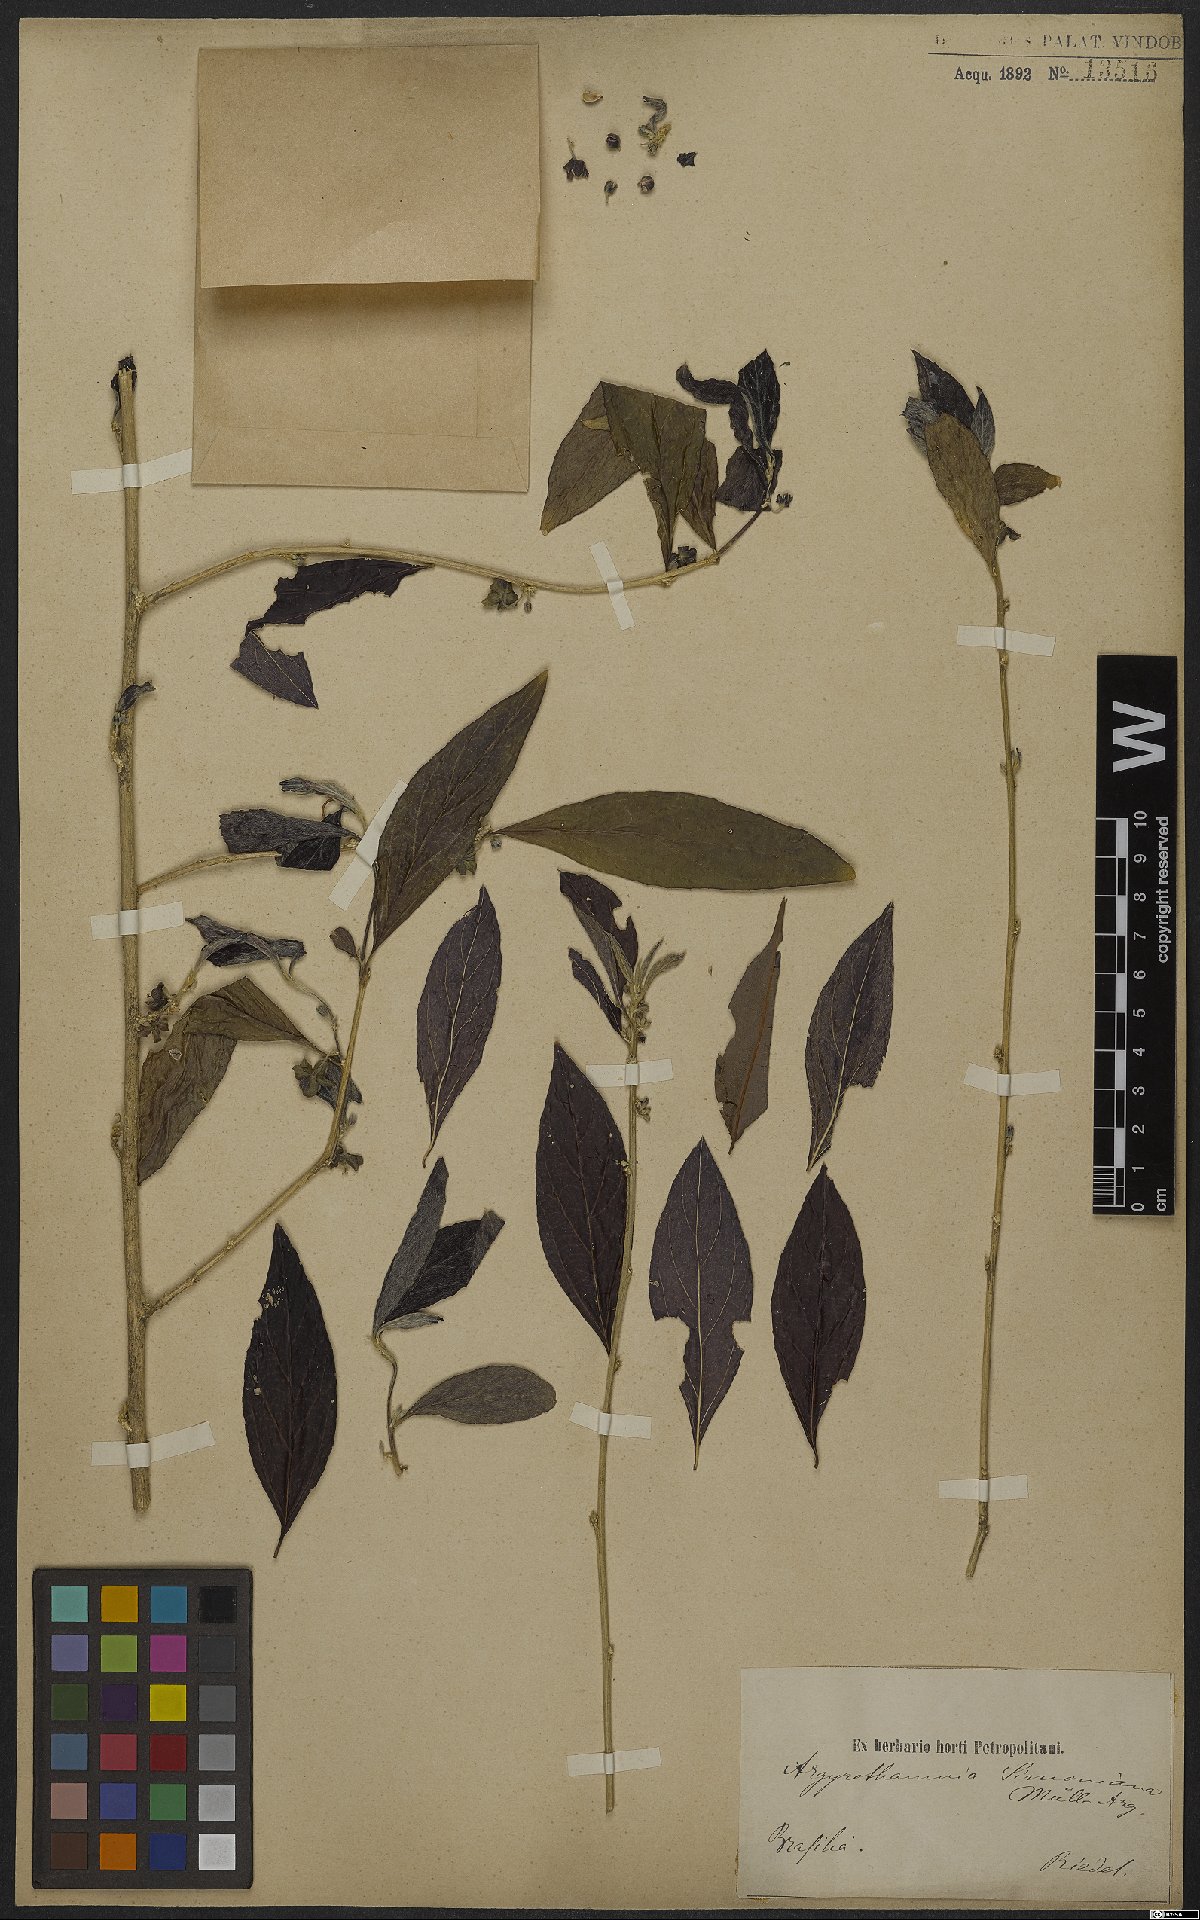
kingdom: Plantae
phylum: Tracheophyta
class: Magnoliopsida
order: Malpighiales
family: Euphorbiaceae
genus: Ditaxis
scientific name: Ditaxis simoniana
